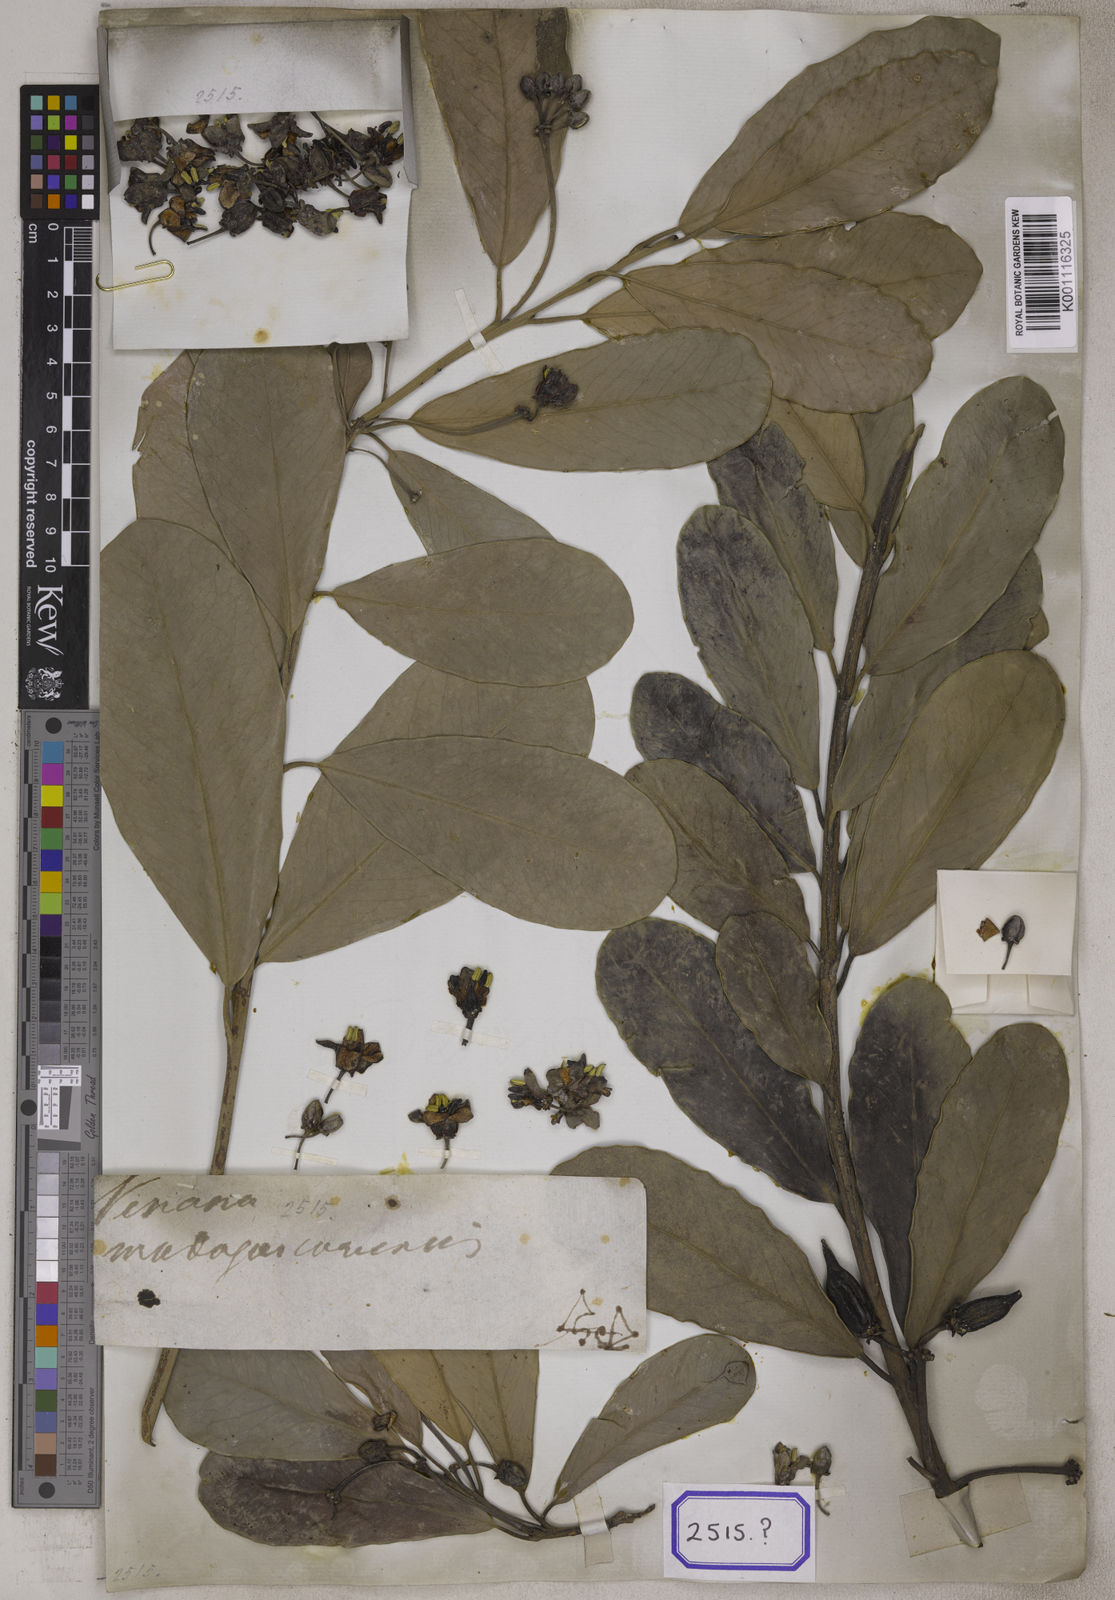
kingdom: Plantae
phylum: Tracheophyta
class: Magnoliopsida
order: Celastrales
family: Celastraceae
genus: Brexia
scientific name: Brexia madagascariensis
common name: Brexia
